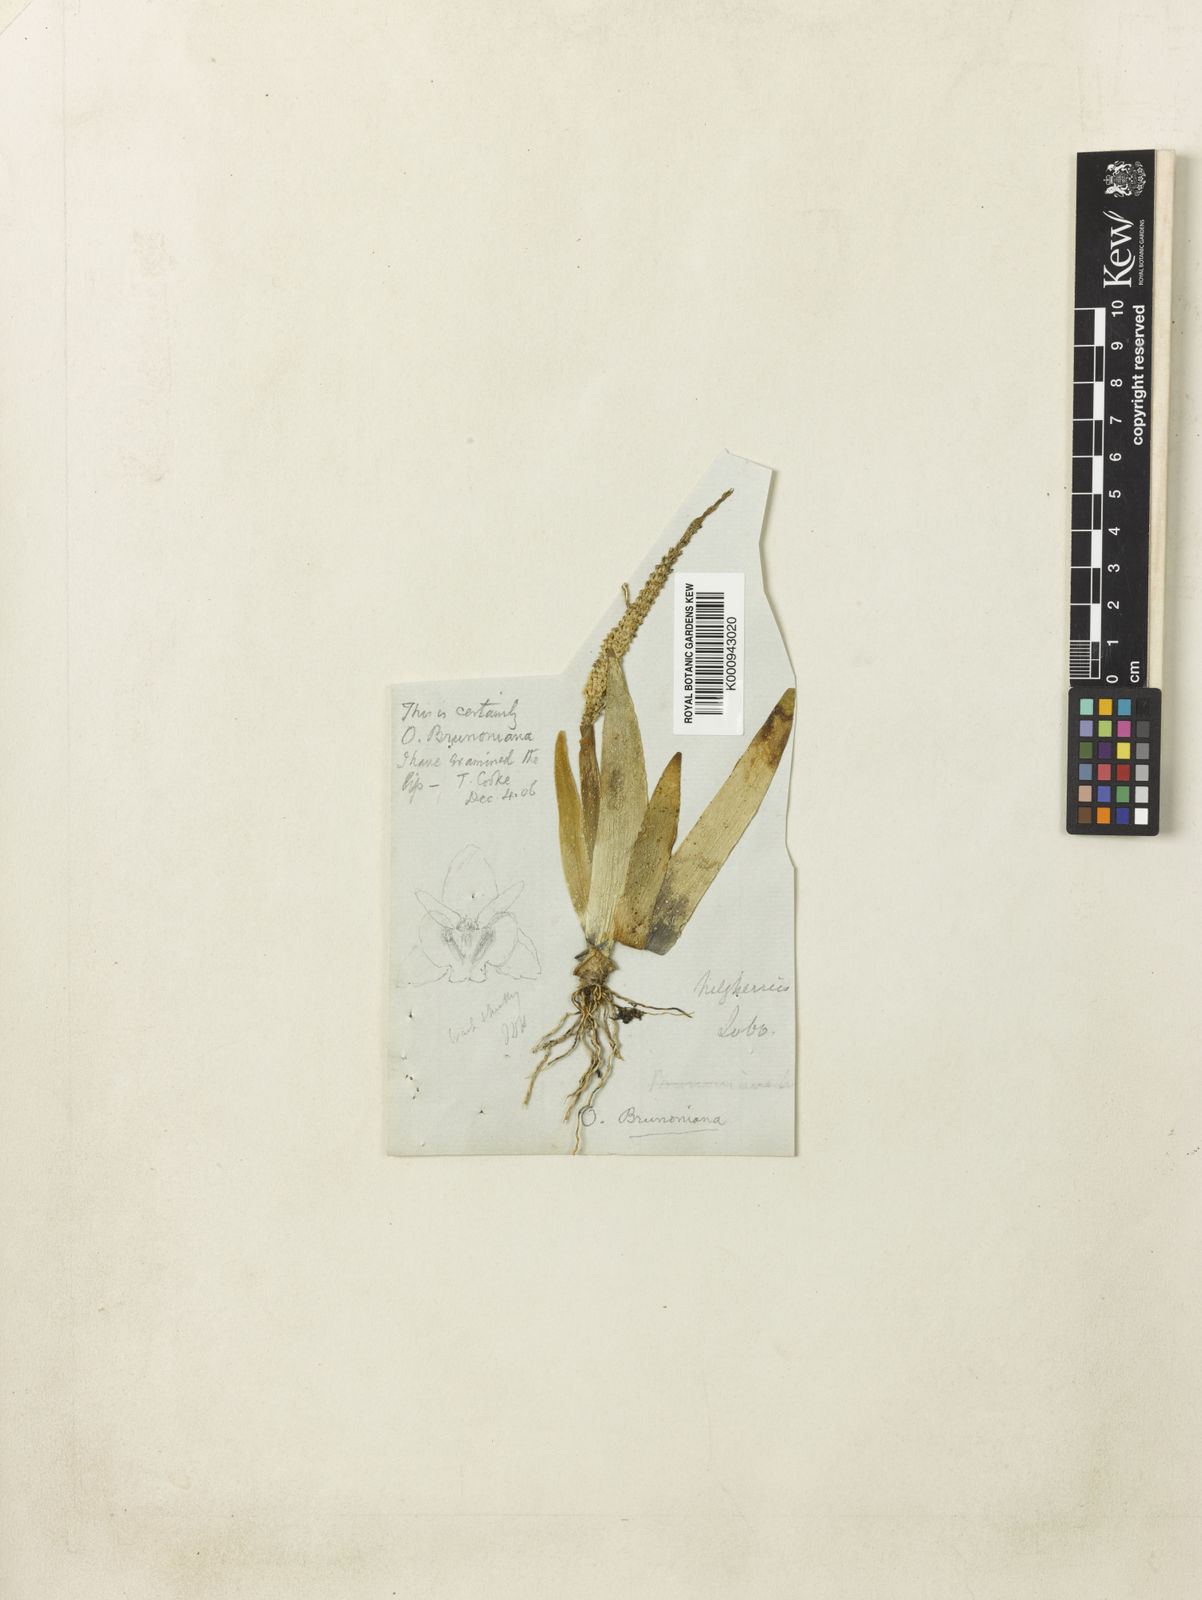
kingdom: Plantae
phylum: Tracheophyta
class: Liliopsida
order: Asparagales
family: Orchidaceae
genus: Oberonia
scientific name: Oberonia brunoniana
